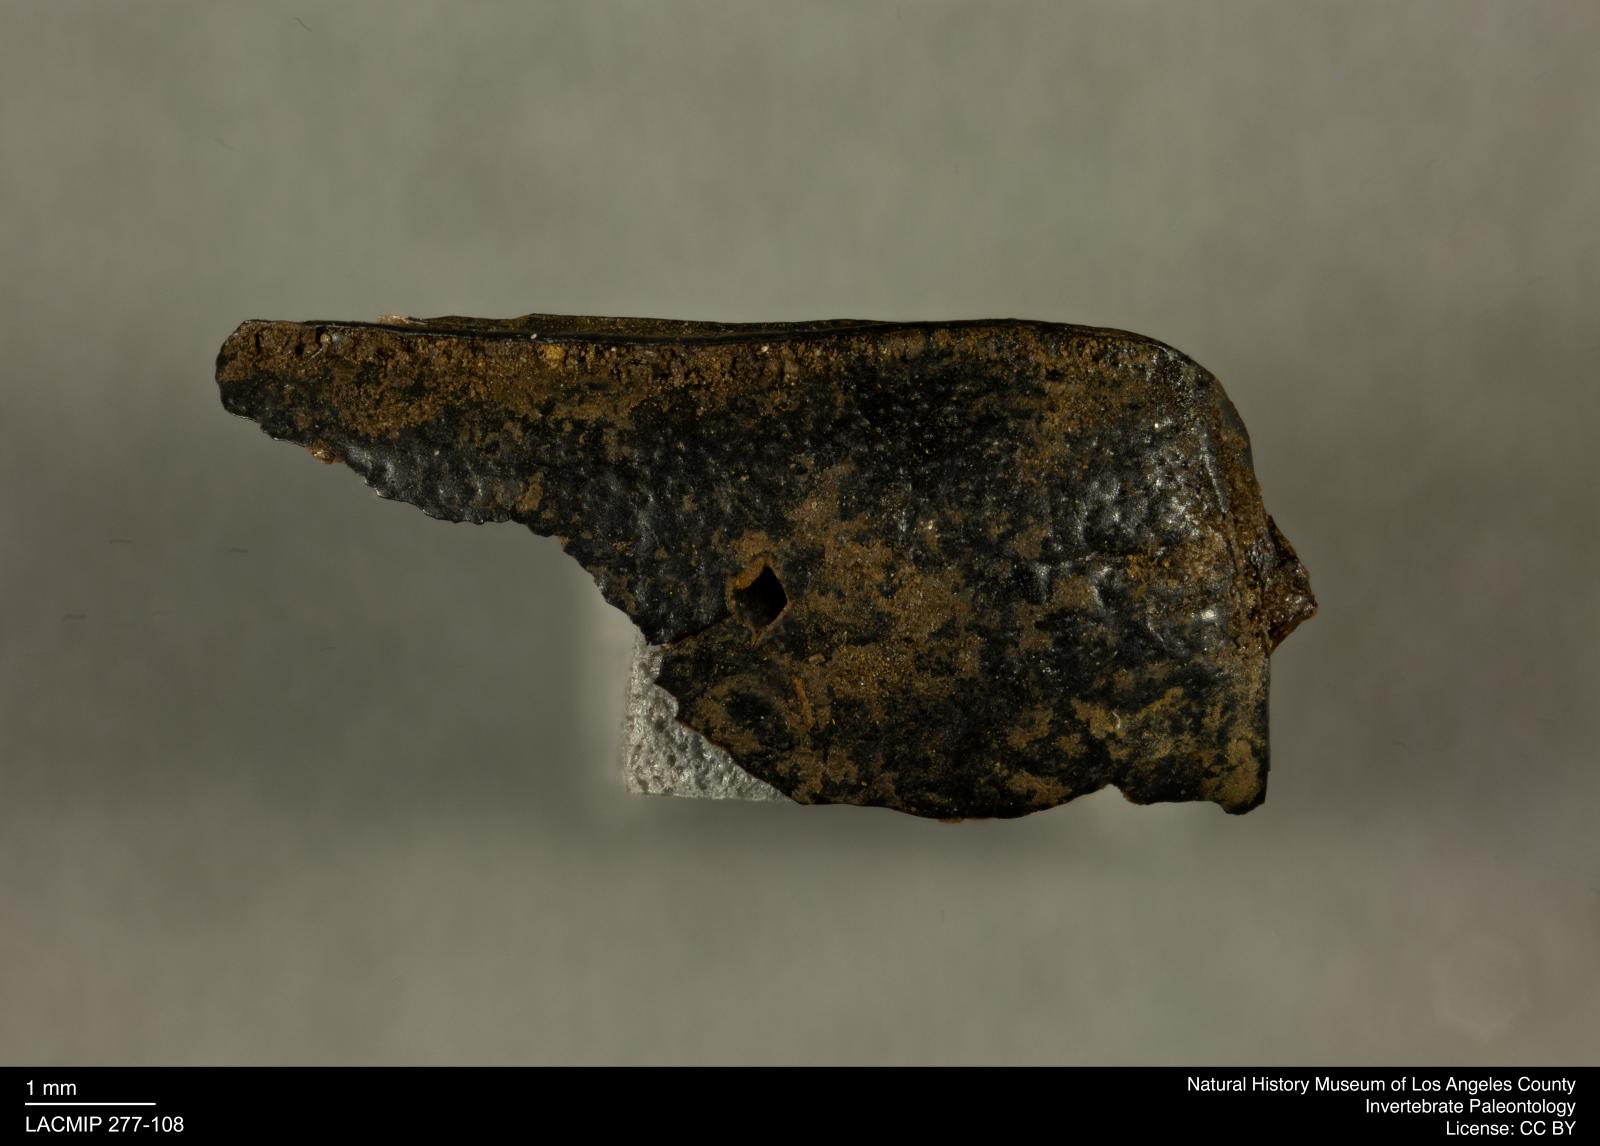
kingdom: Animalia
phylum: Arthropoda
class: Insecta
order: Coleoptera
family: Tenebrionidae
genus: Coniontis
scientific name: Coniontis abdominalis
